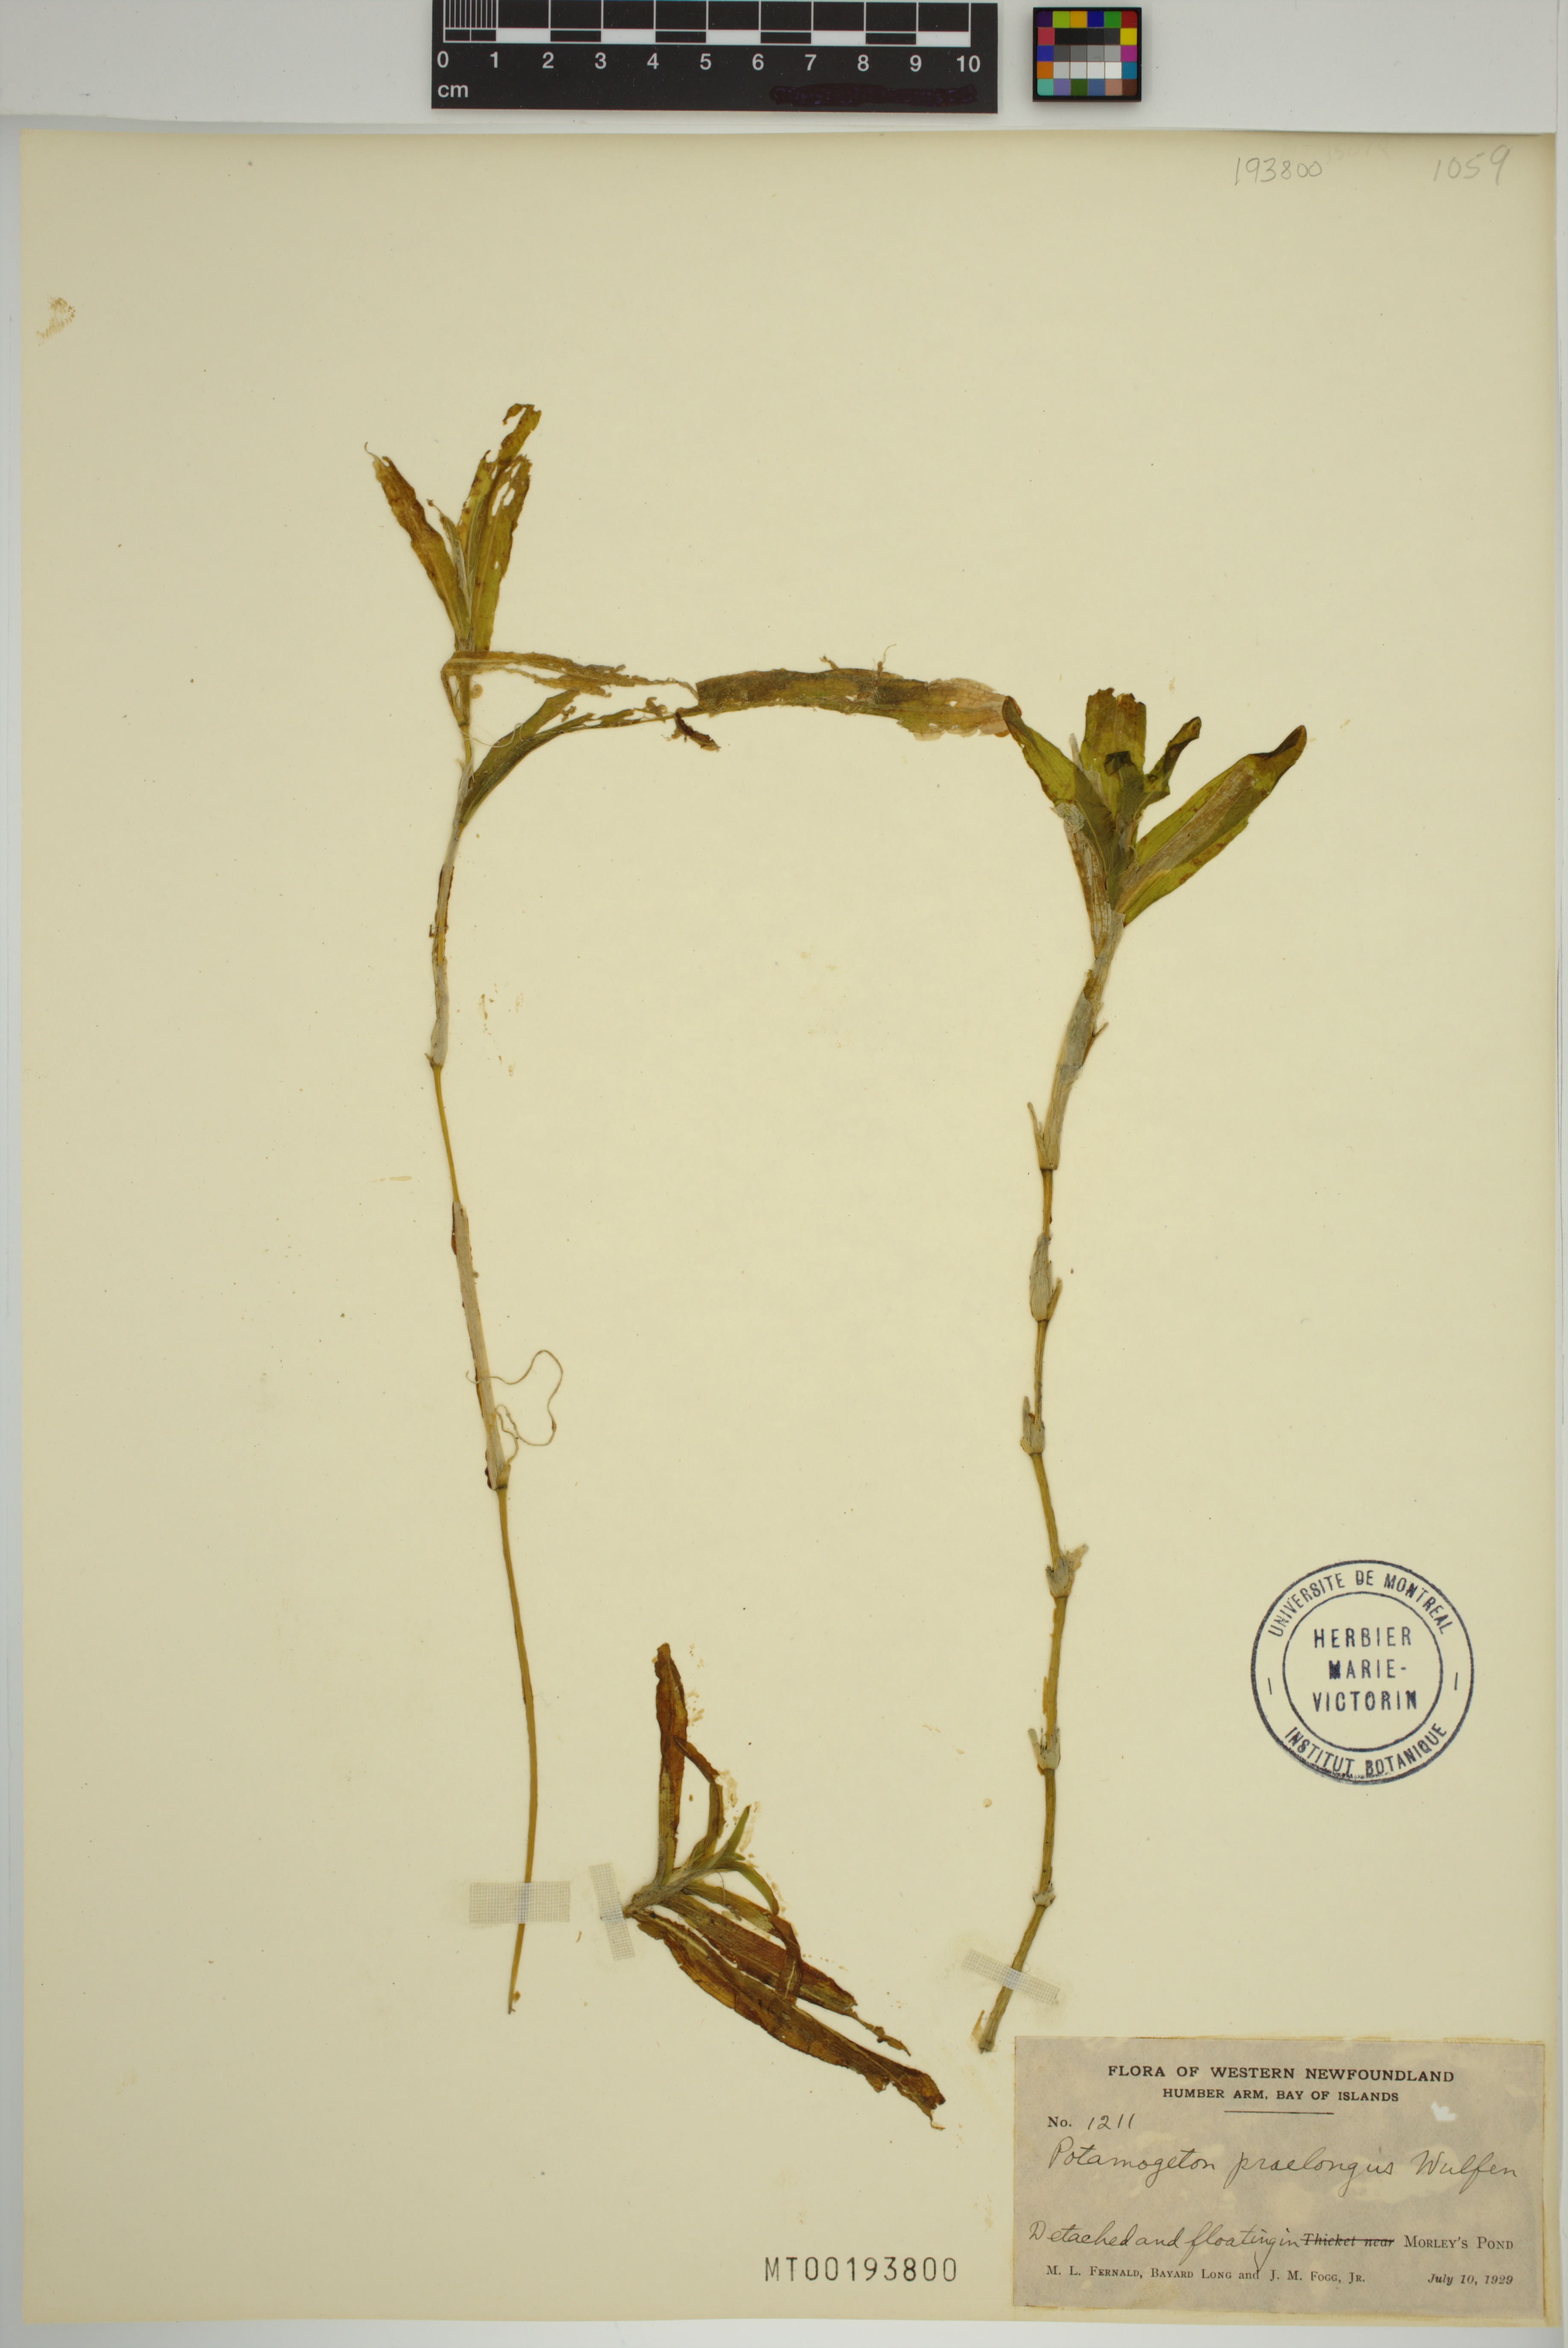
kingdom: Plantae
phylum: Tracheophyta
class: Liliopsida
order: Alismatales
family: Potamogetonaceae
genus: Potamogeton
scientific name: Potamogeton praelongus
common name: Long-stalked pondweed
